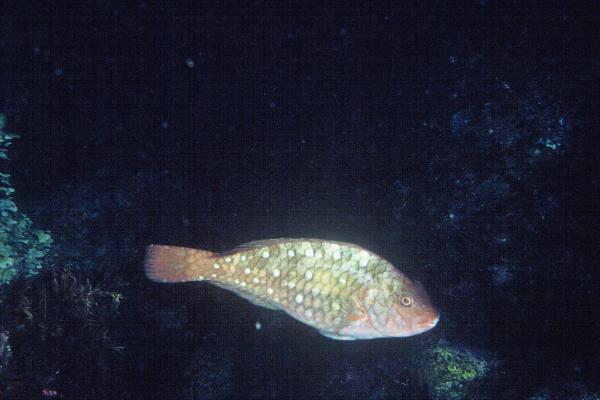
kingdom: Animalia
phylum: Chordata
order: Perciformes
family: Scaridae
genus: Calotomus
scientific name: Calotomus japonicus
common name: Japanese parrotfish
